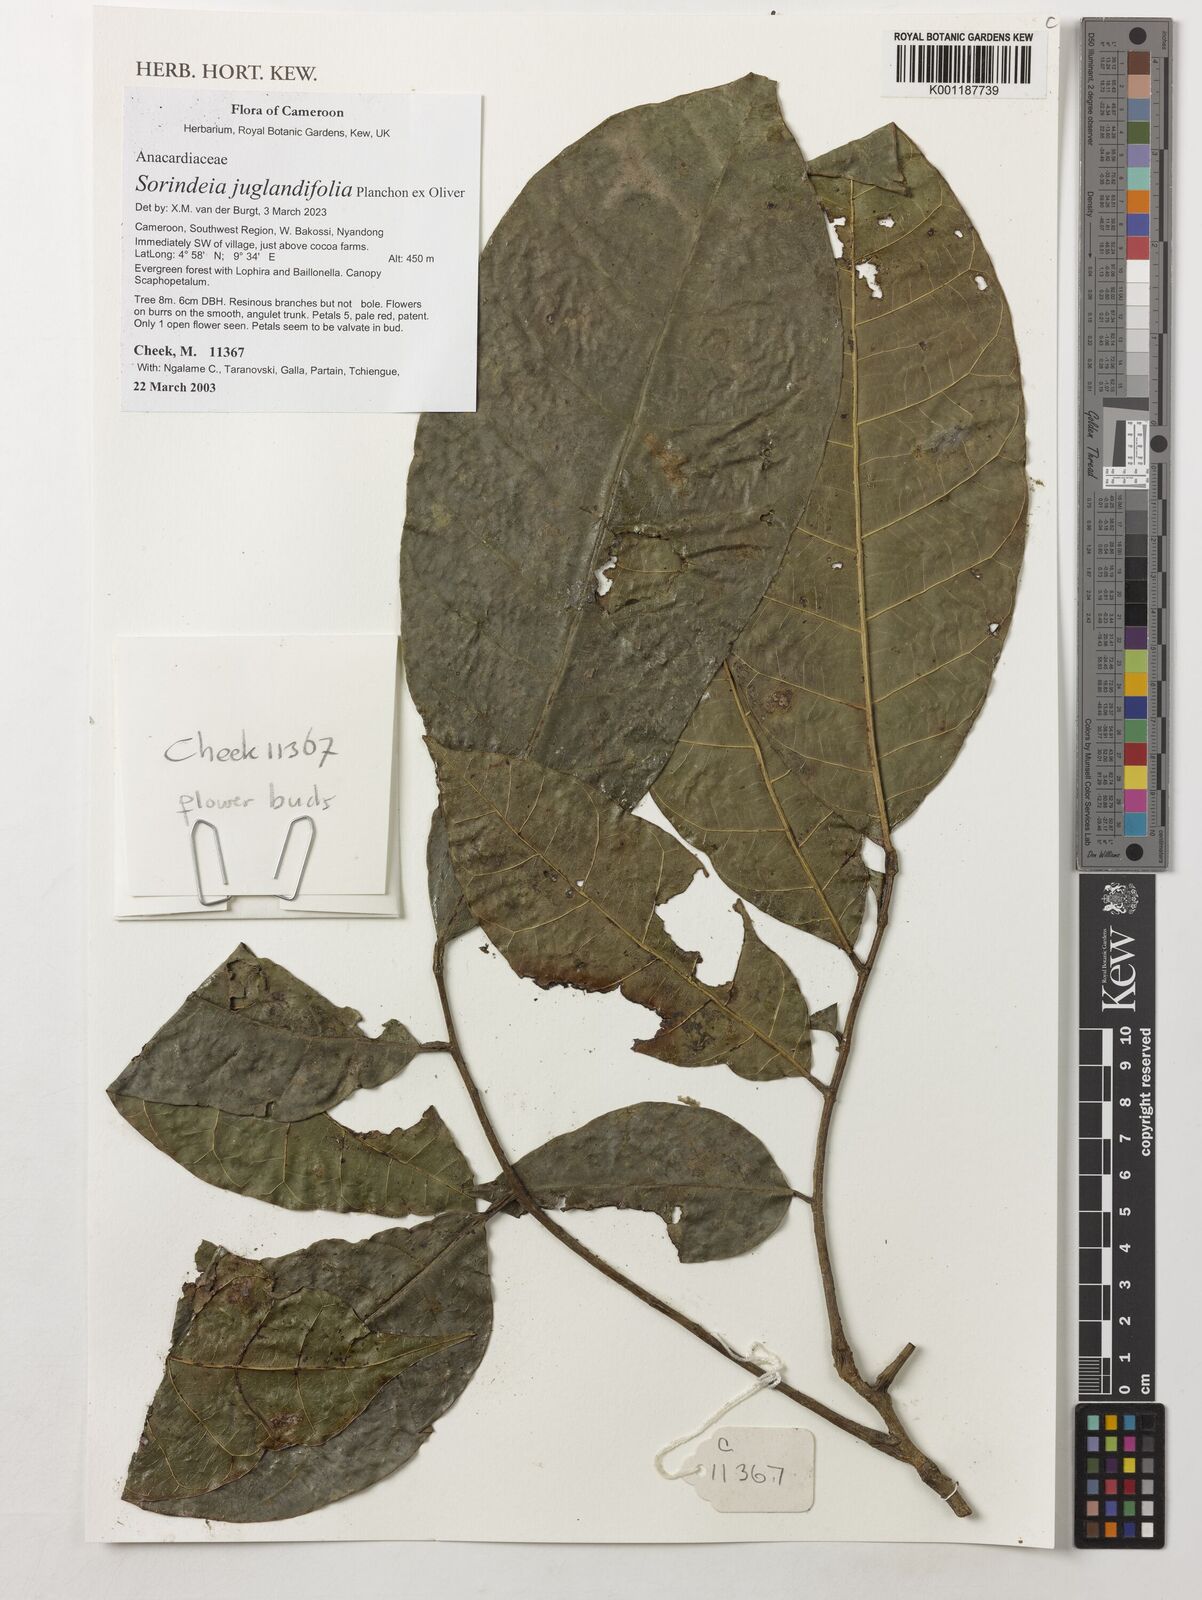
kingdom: Plantae
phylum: Tracheophyta
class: Magnoliopsida
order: Sapindales
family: Anacardiaceae
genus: Sorindeia
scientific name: Sorindeia juglandifolia
